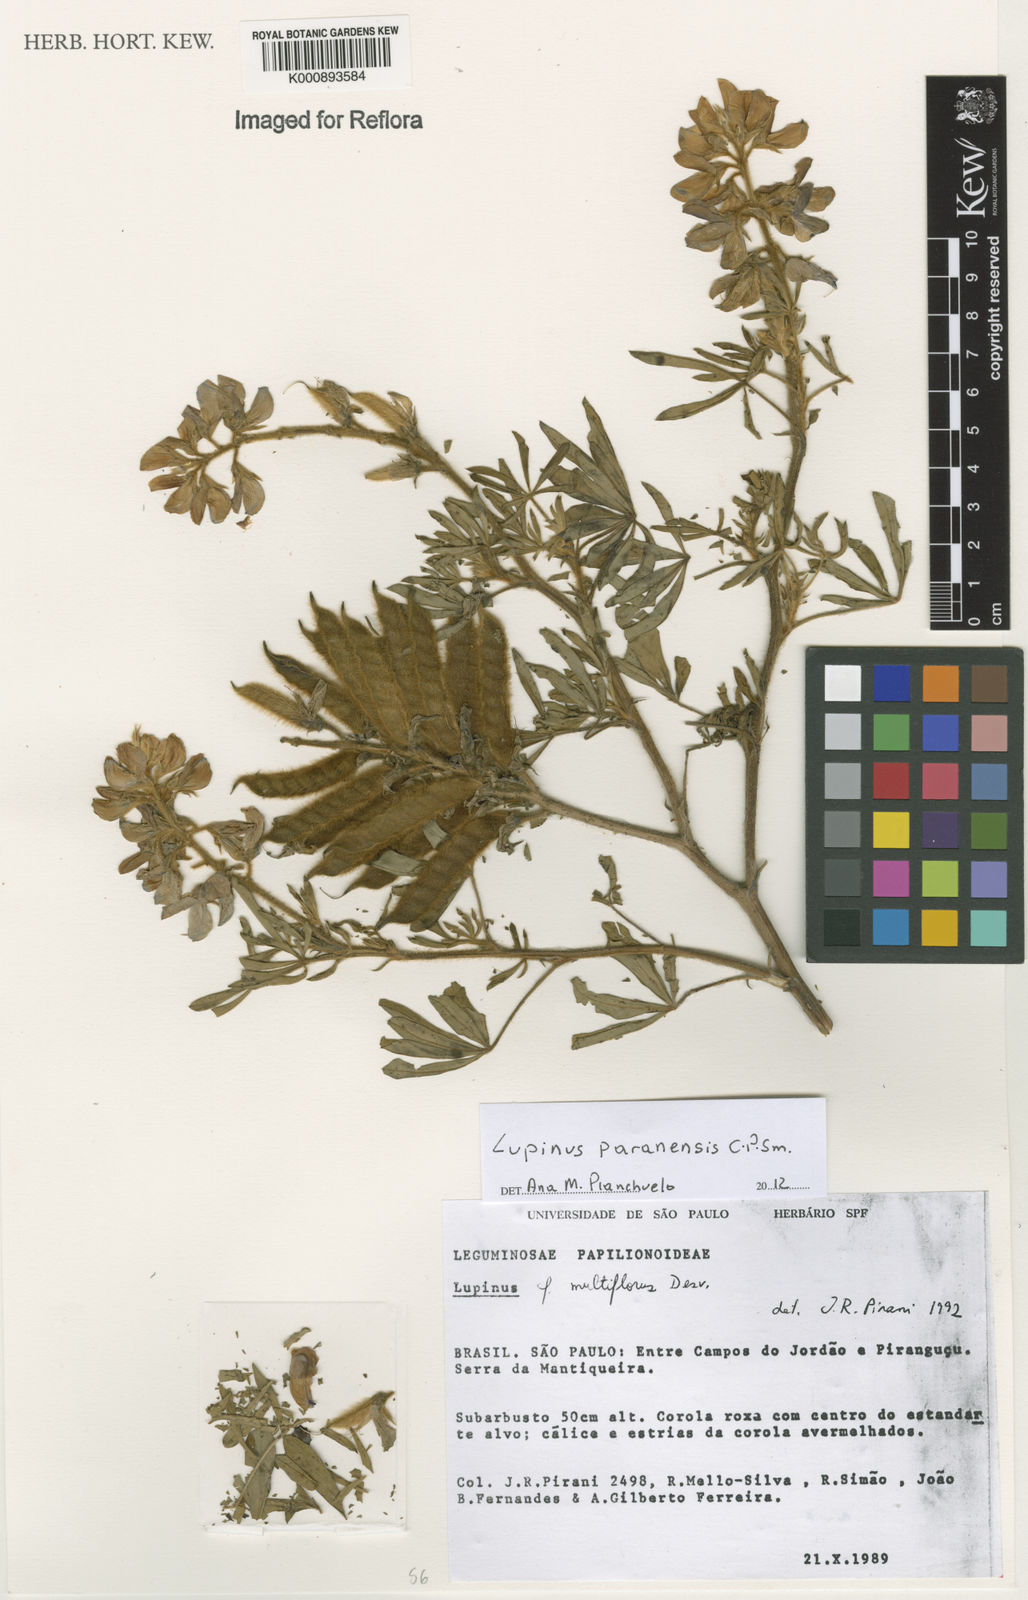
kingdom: Plantae
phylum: Tracheophyta
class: Magnoliopsida
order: Fabales
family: Fabaceae
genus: Lupinus
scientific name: Lupinus paranensis
